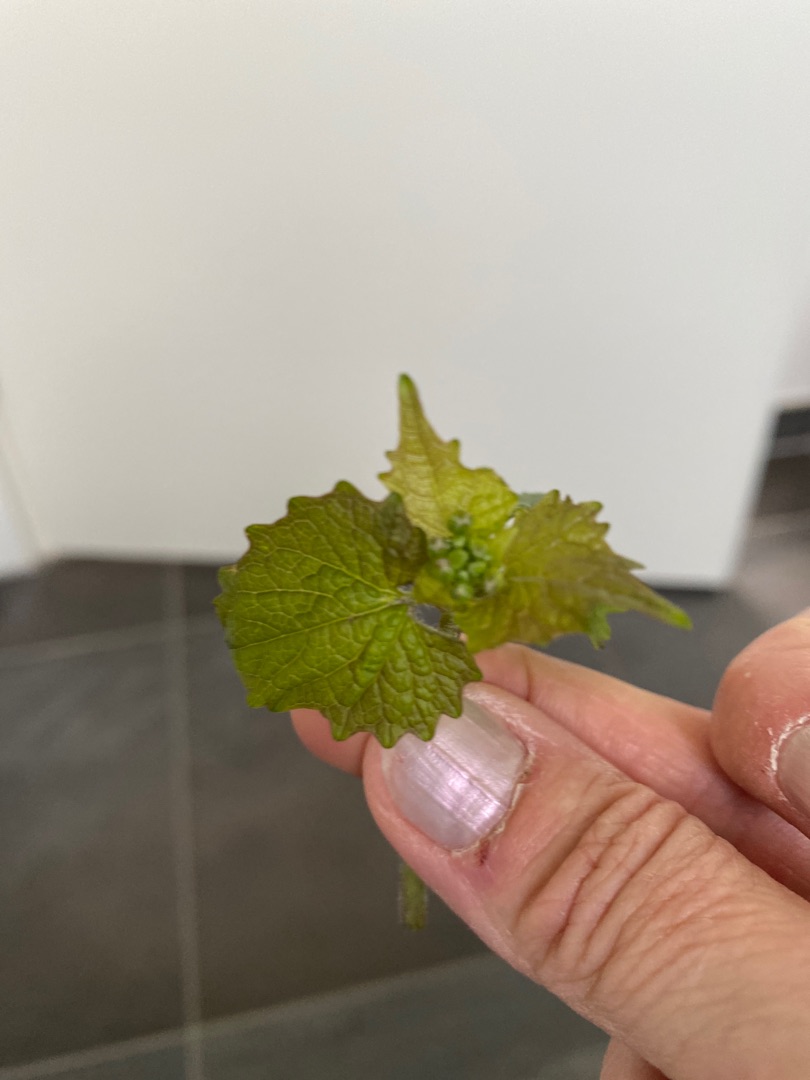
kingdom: Plantae
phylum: Tracheophyta
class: Magnoliopsida
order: Brassicales
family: Brassicaceae
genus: Alliaria
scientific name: Alliaria petiolata
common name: Løgkarse
